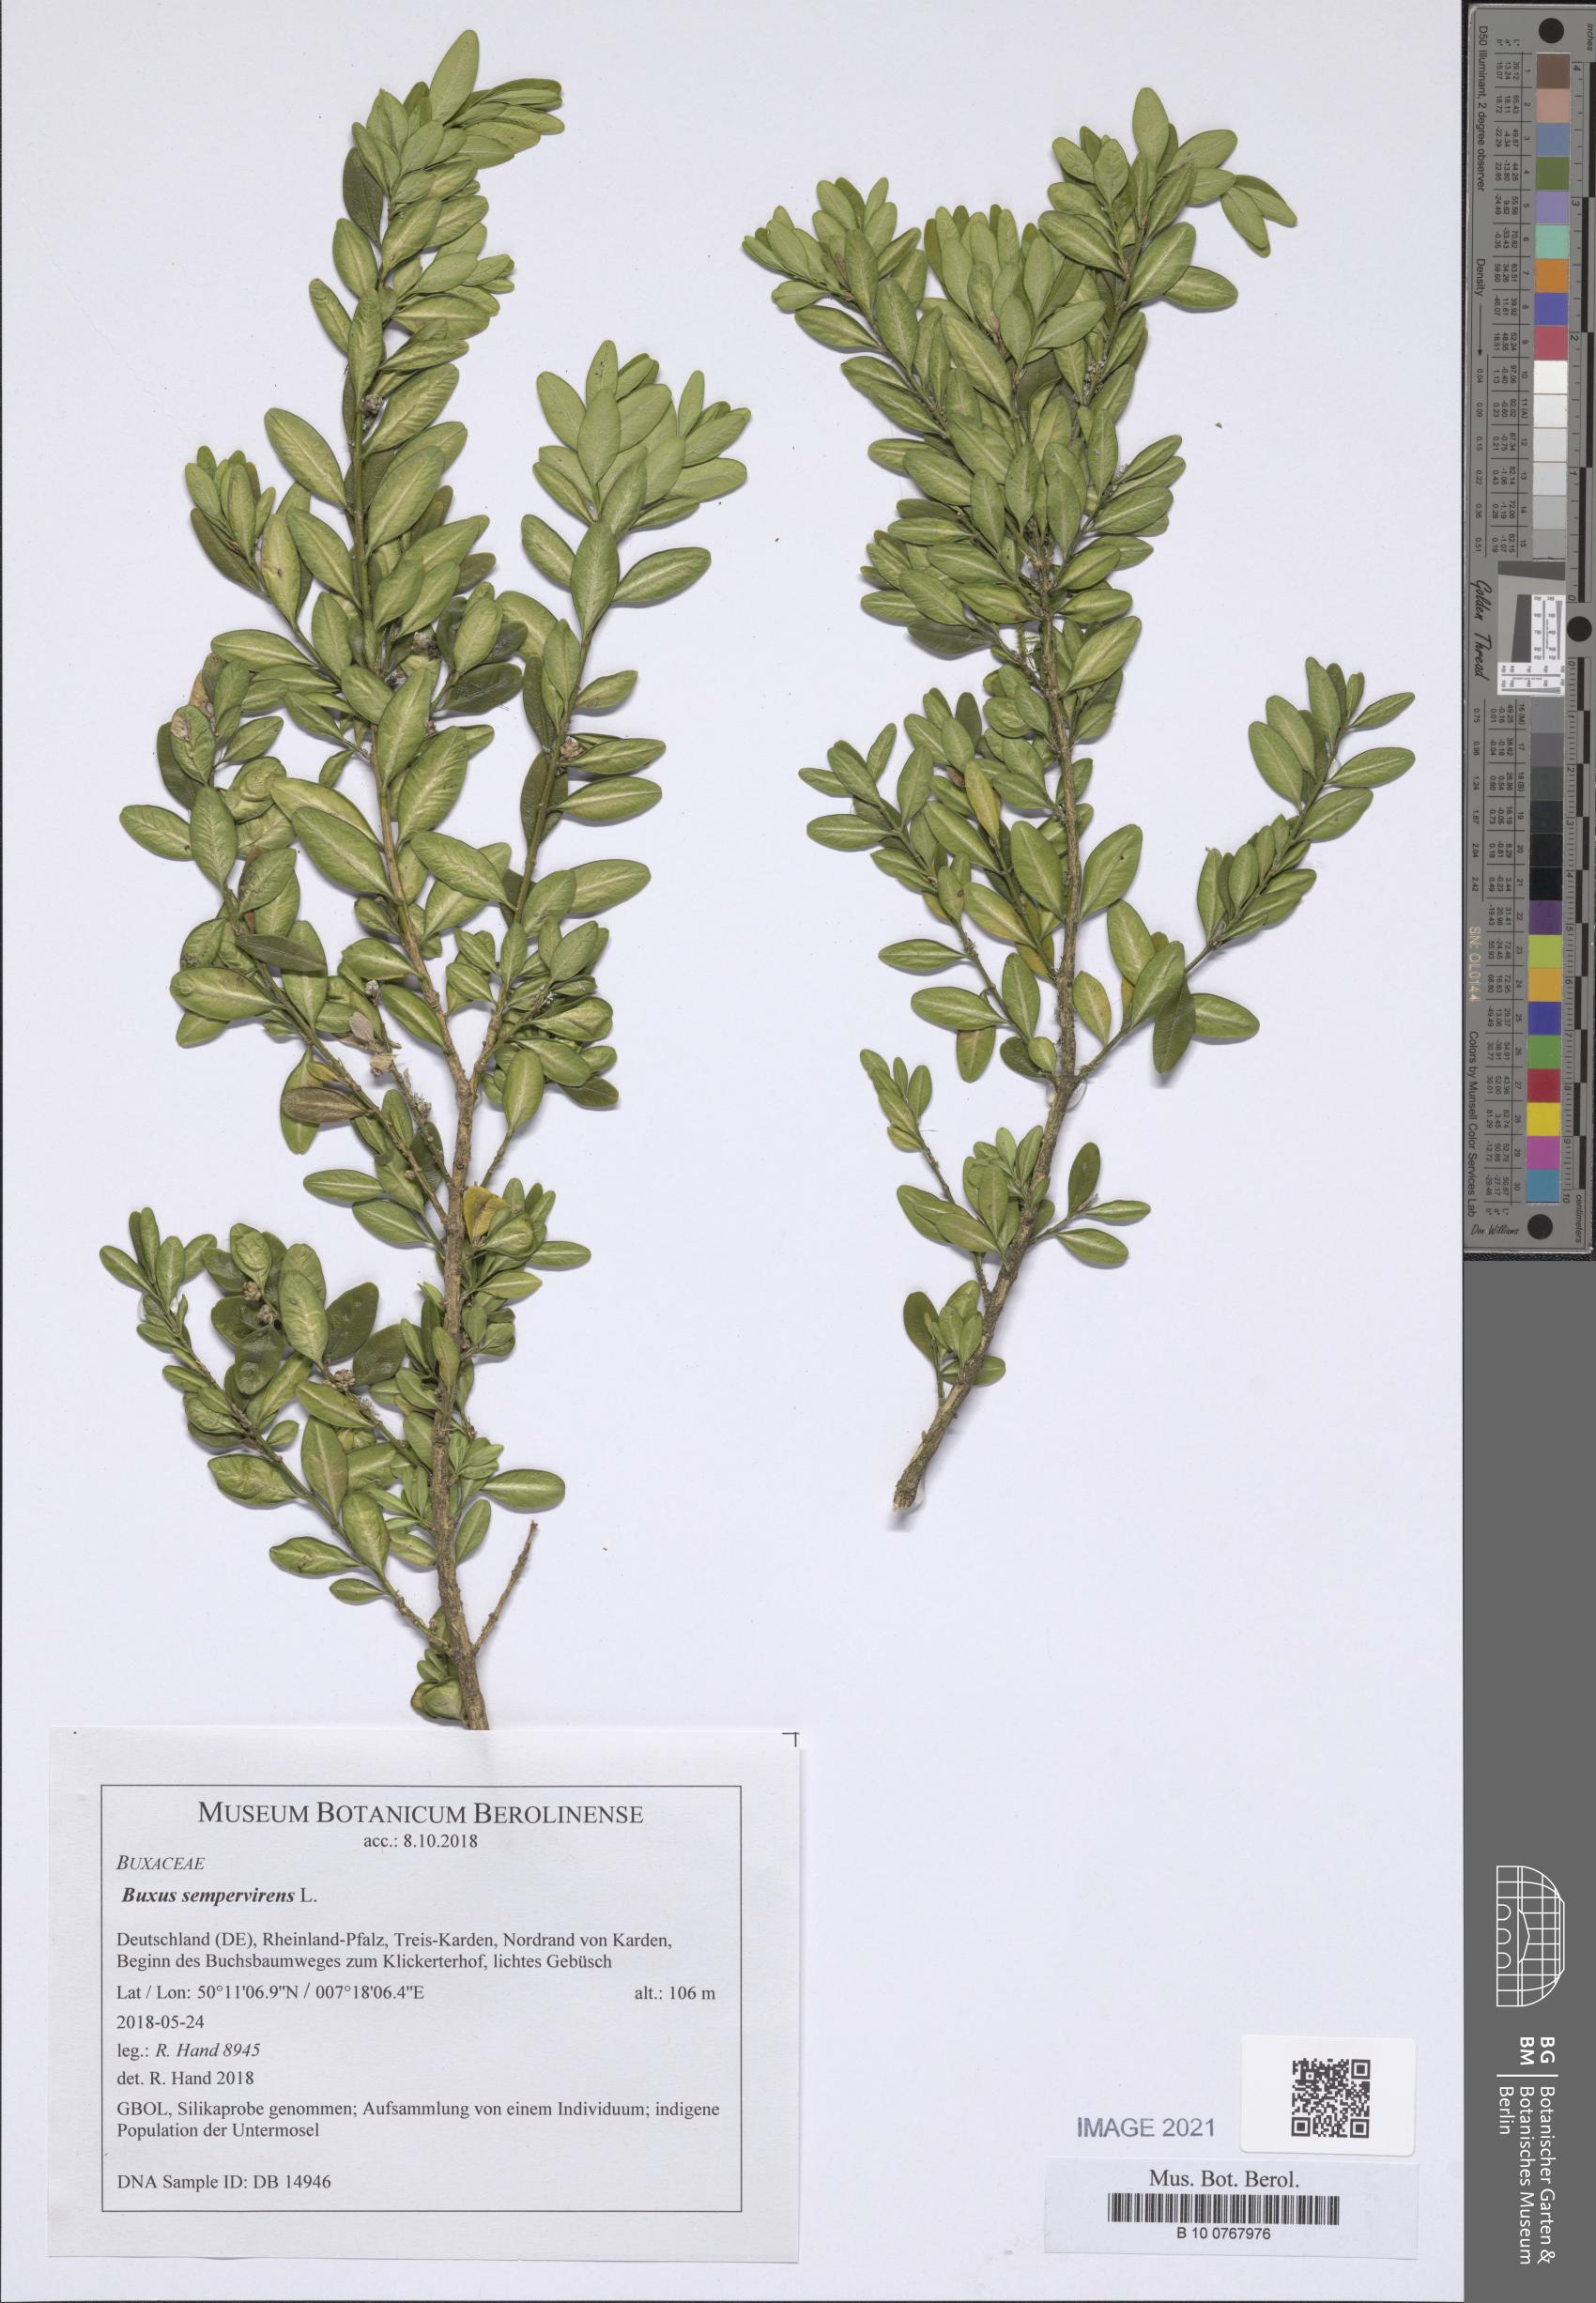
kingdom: Plantae
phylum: Tracheophyta
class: Magnoliopsida
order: Buxales
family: Buxaceae
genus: Buxus
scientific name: Buxus sempervirens
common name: Box
